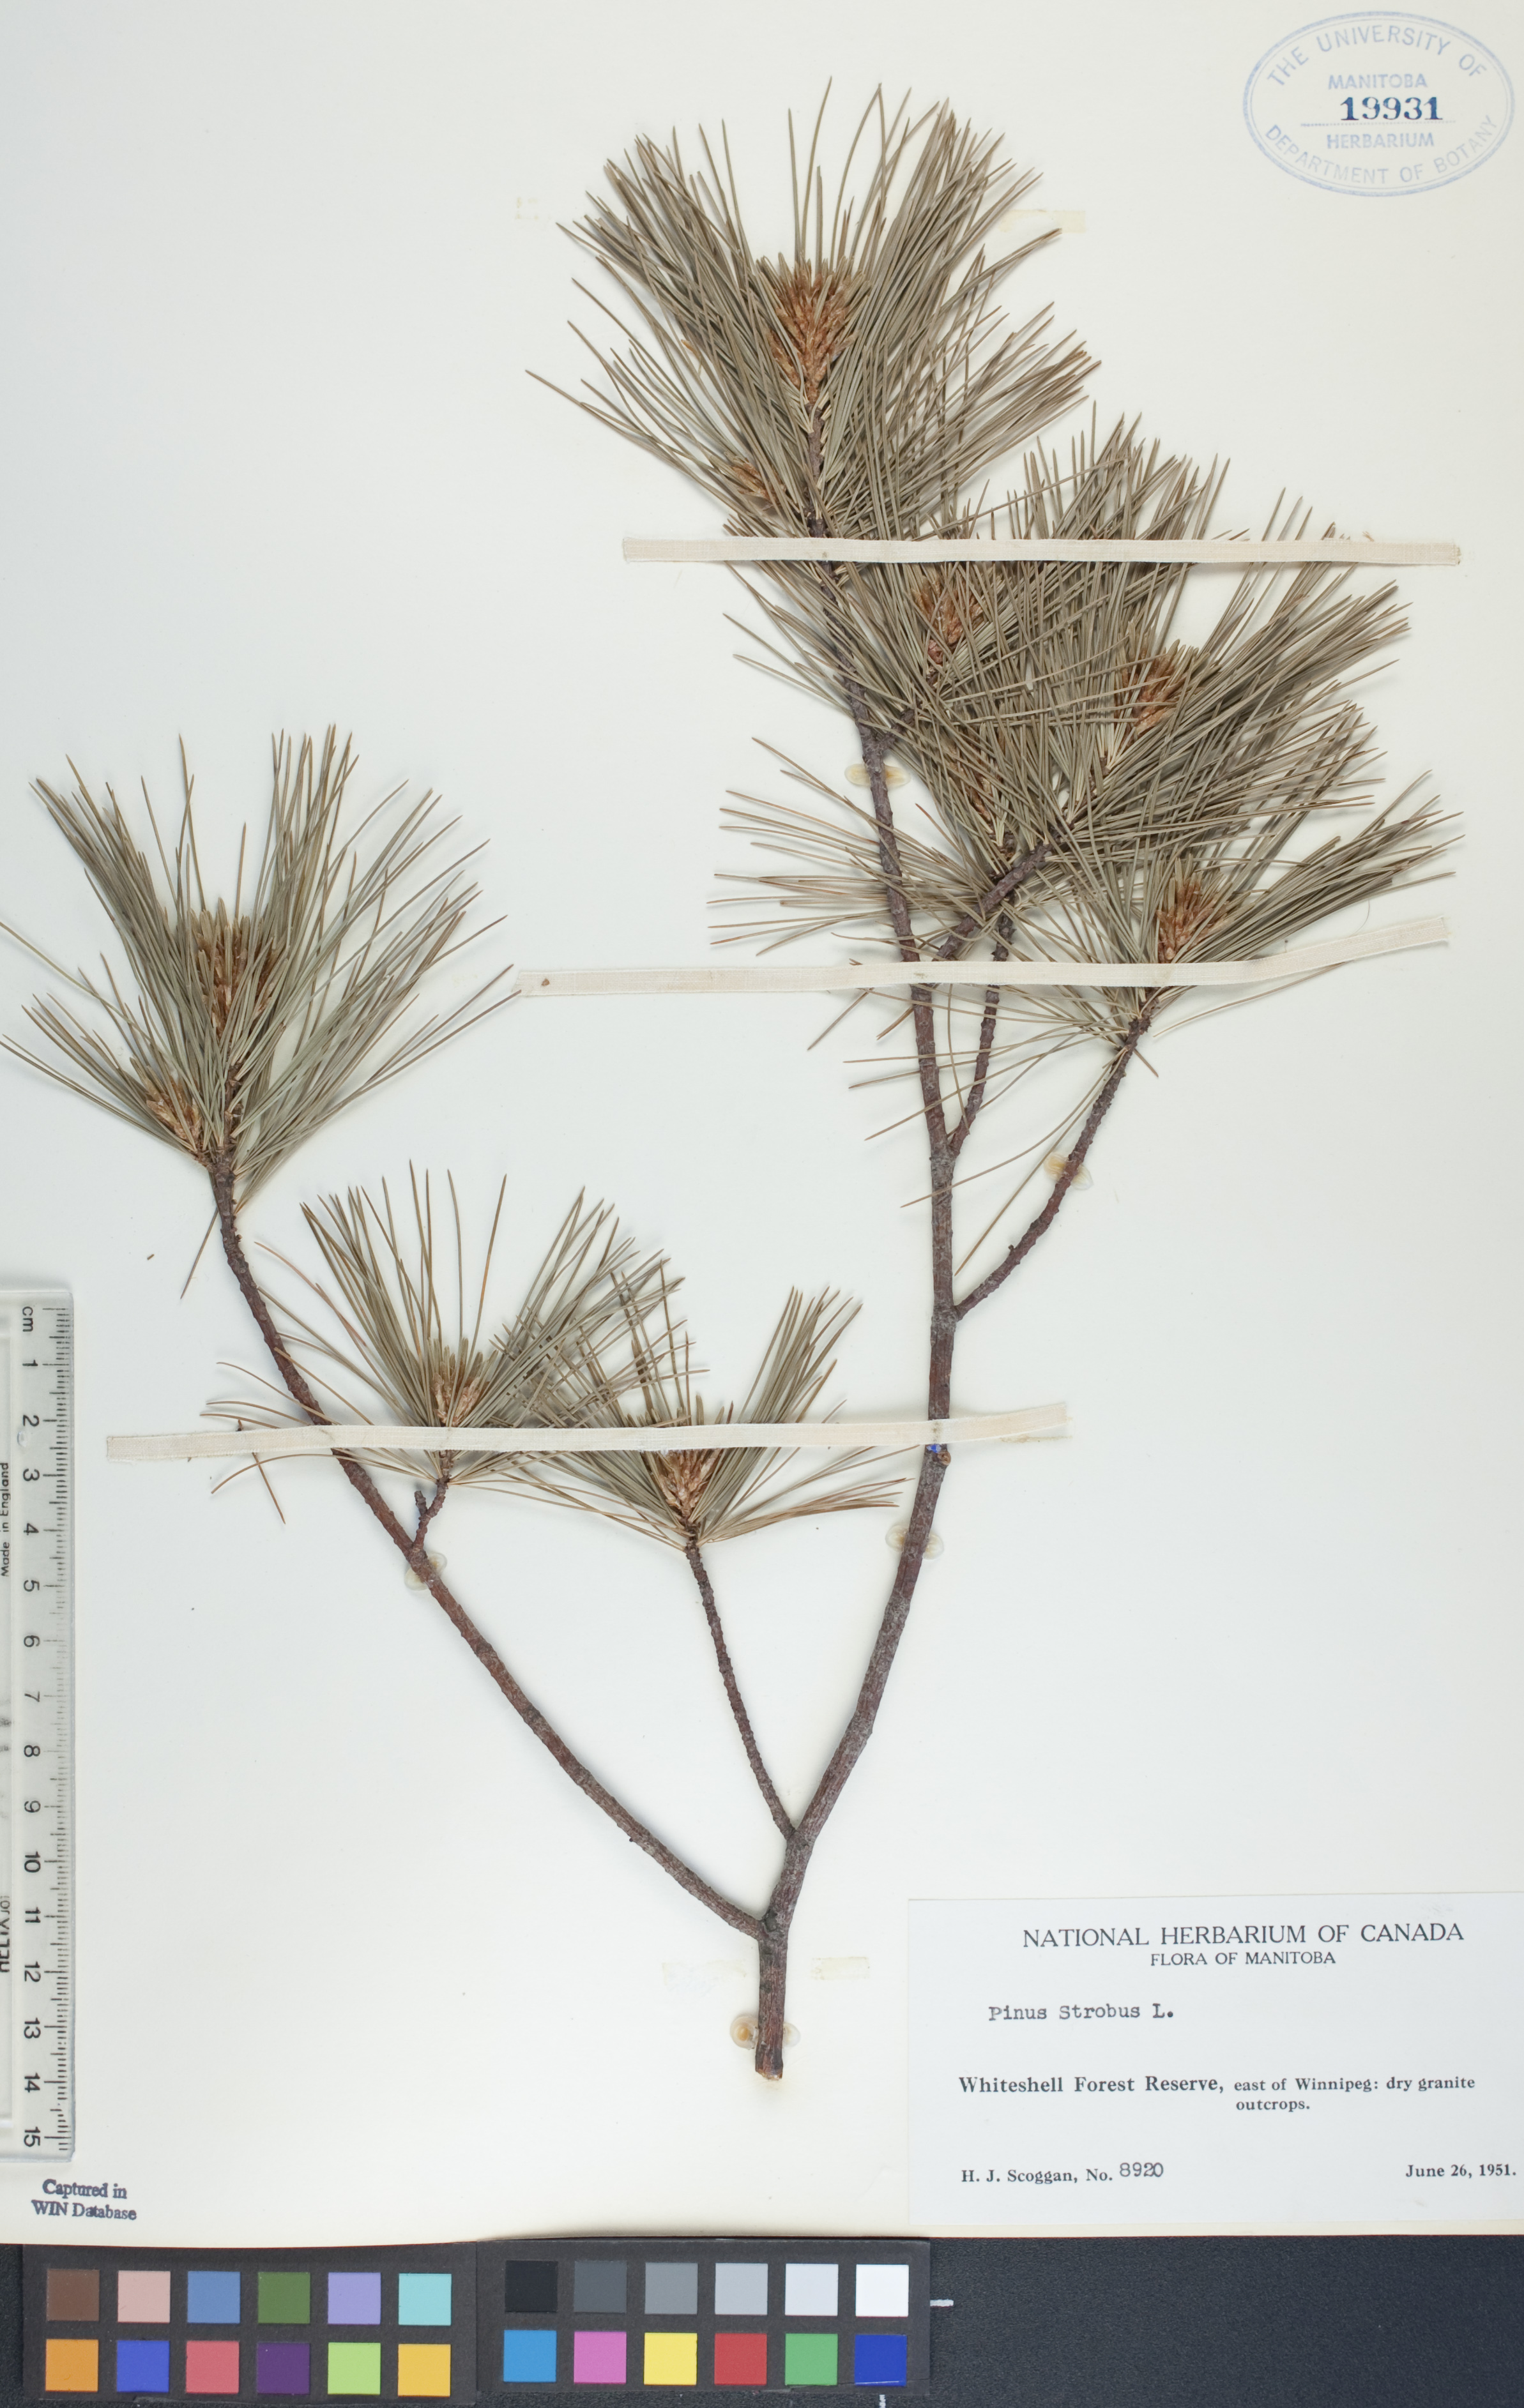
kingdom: Plantae
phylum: Tracheophyta
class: Pinopsida
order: Pinales
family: Pinaceae
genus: Pinus
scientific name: Pinus strobus
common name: Weymouth pine
